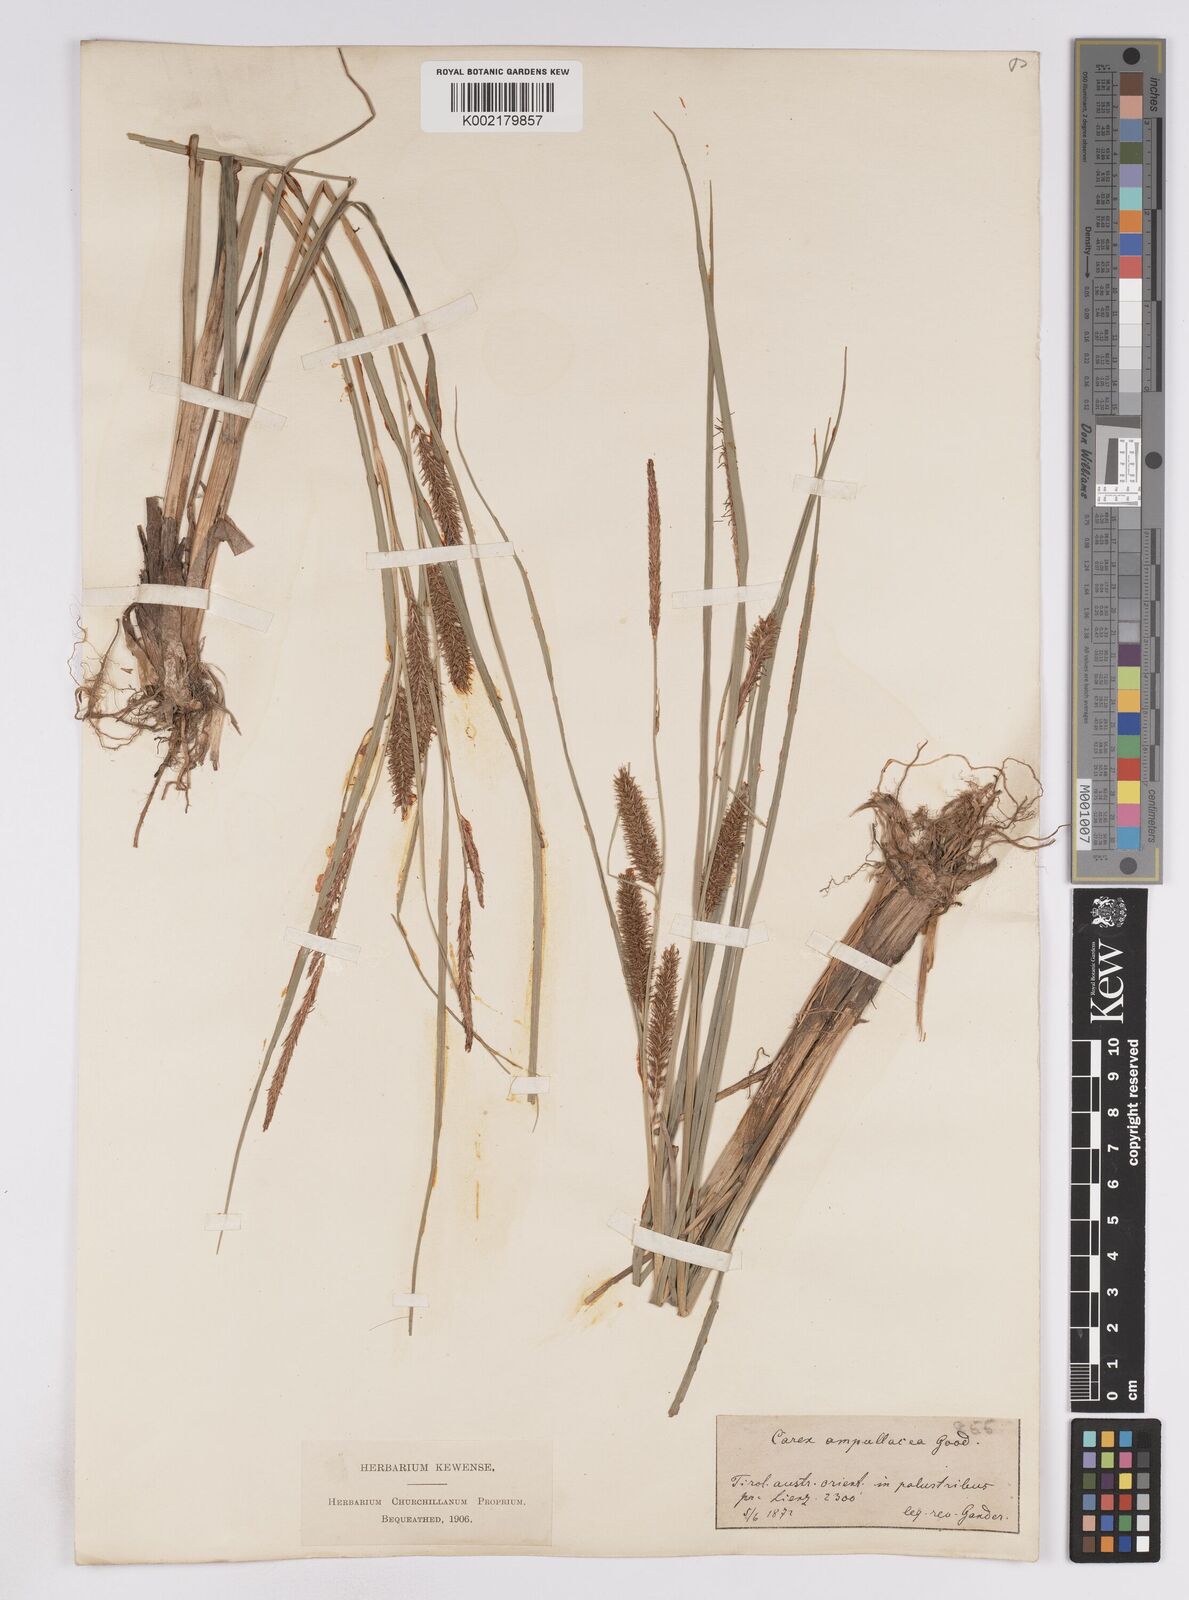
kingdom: Plantae
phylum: Tracheophyta
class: Liliopsida
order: Poales
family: Cyperaceae
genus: Carex
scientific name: Carex rostrata
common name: Bottle sedge
